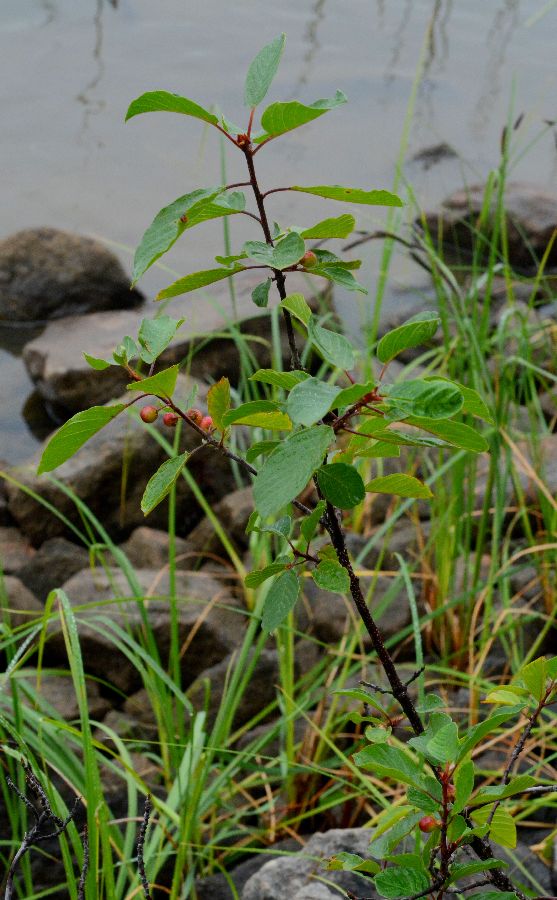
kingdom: Plantae
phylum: Tracheophyta
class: Magnoliopsida
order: Rosales
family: Rhamnaceae
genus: Frangula
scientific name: Frangula alnus
